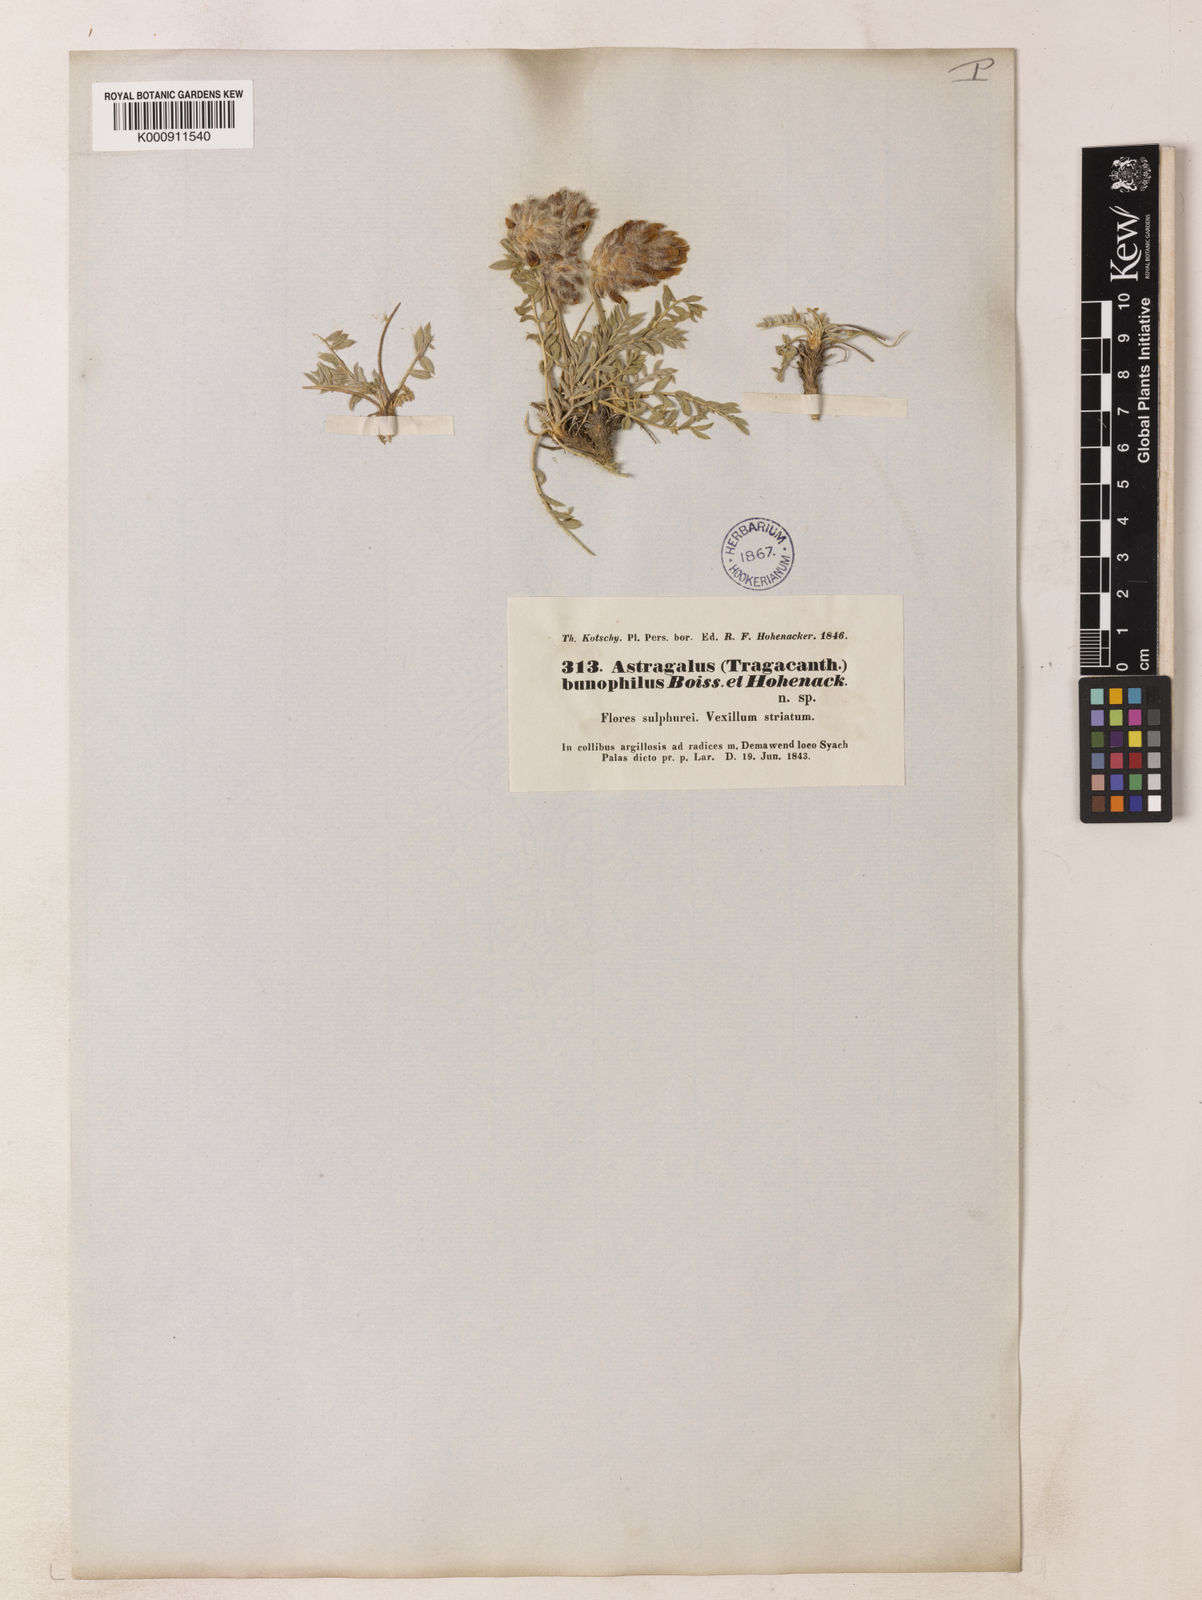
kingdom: Plantae
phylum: Tracheophyta
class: Magnoliopsida
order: Fabales
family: Fabaceae
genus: Astragalus
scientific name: Astragalus persicus
